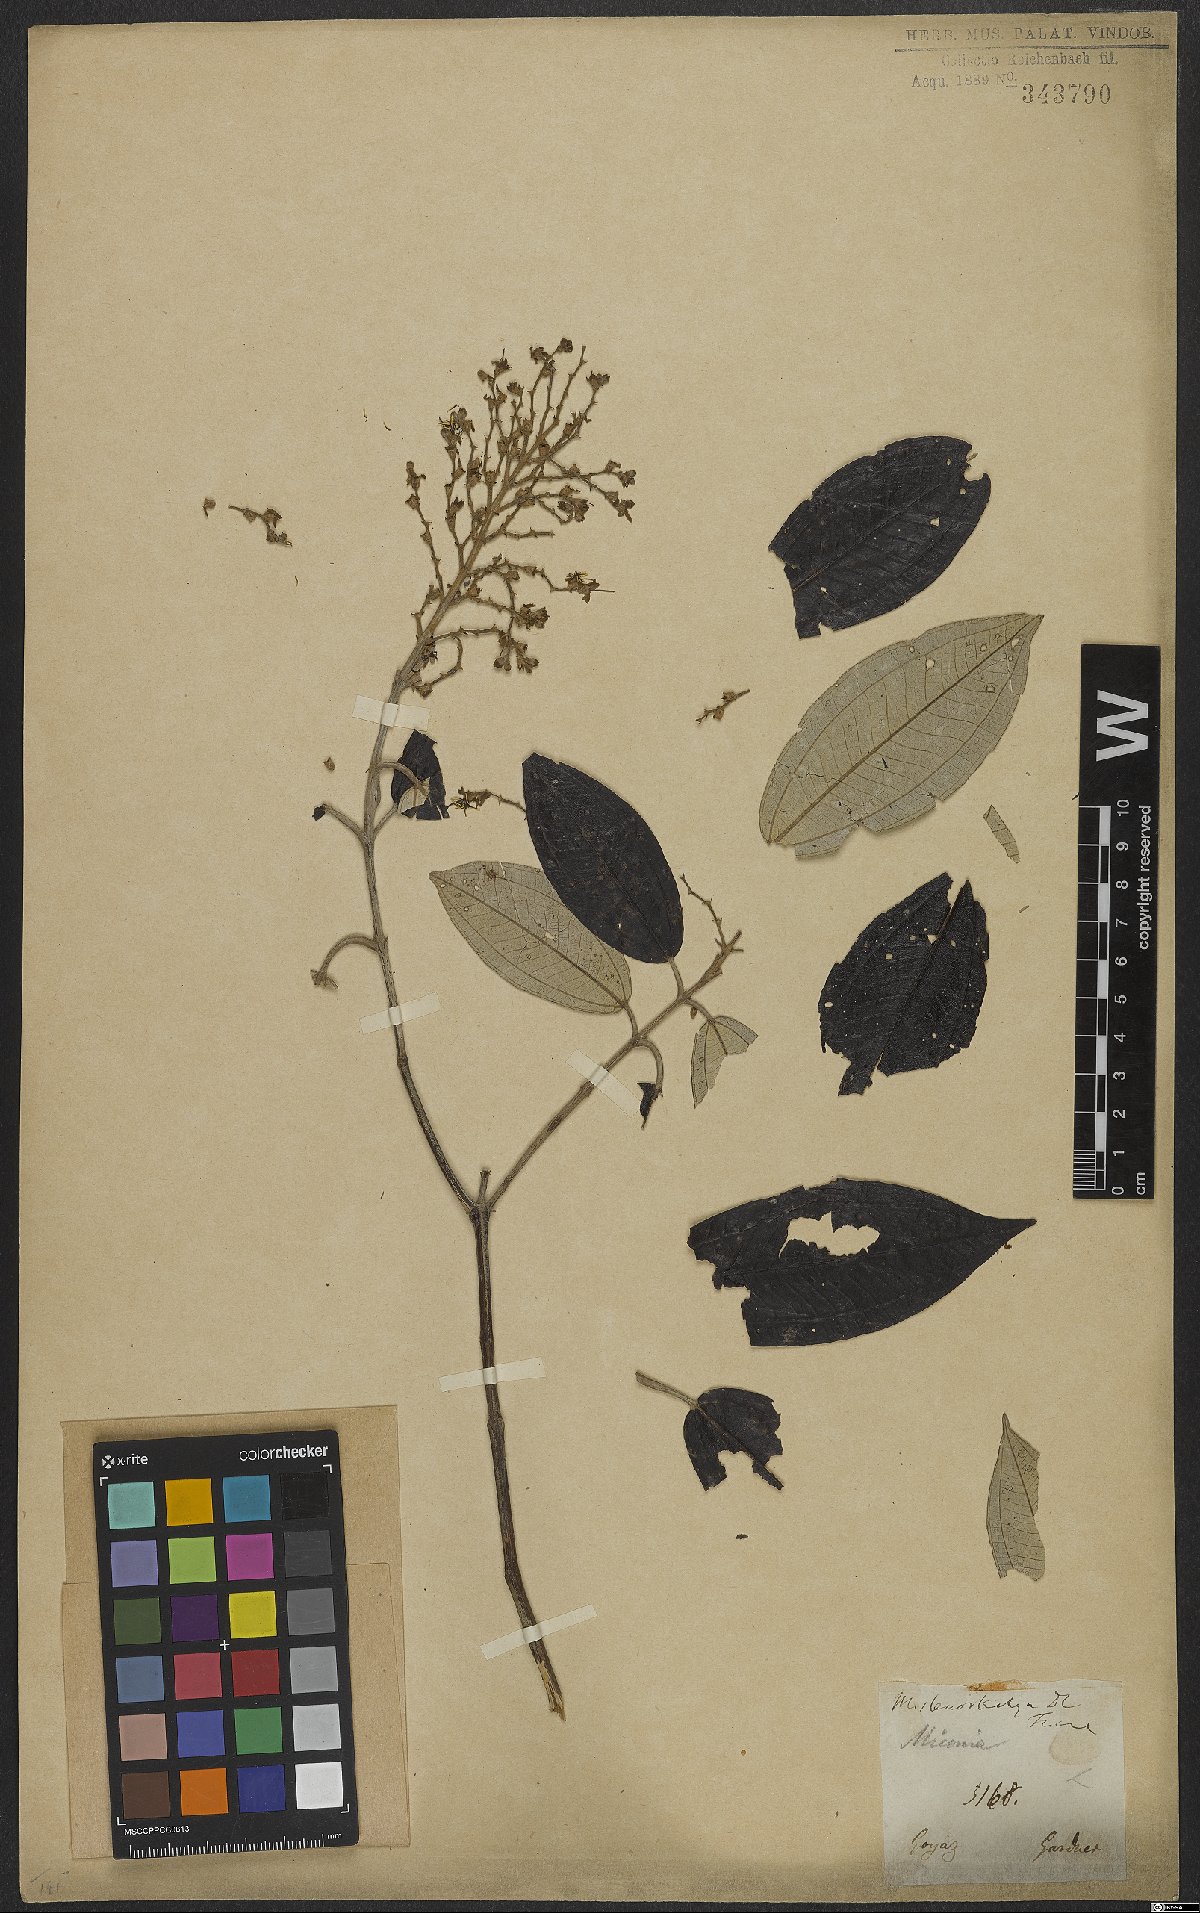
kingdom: Plantae
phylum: Tracheophyta
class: Magnoliopsida
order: Myrtales
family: Melastomataceae
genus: Miconia
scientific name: Miconia stenostachya
